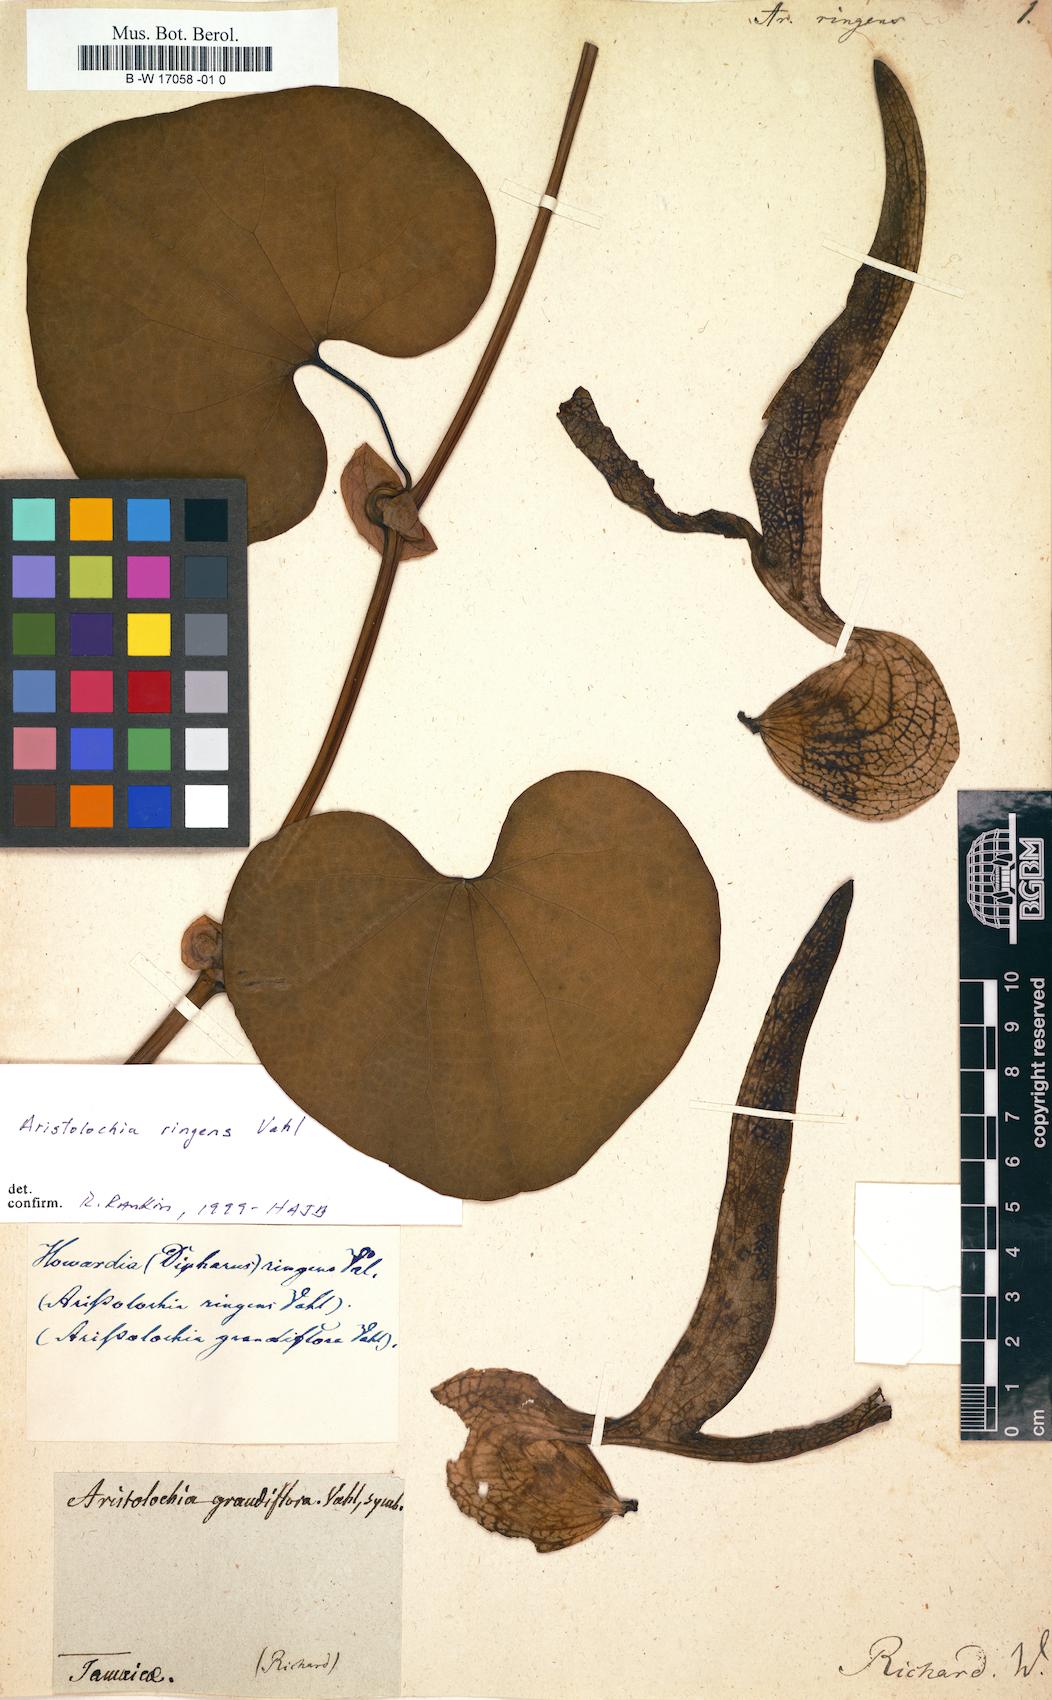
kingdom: Plantae
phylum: Tracheophyta
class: Magnoliopsida
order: Piperales
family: Aristolochiaceae
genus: Aristolochia
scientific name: Aristolochia ringens
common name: Gaping dutchman's pipe
